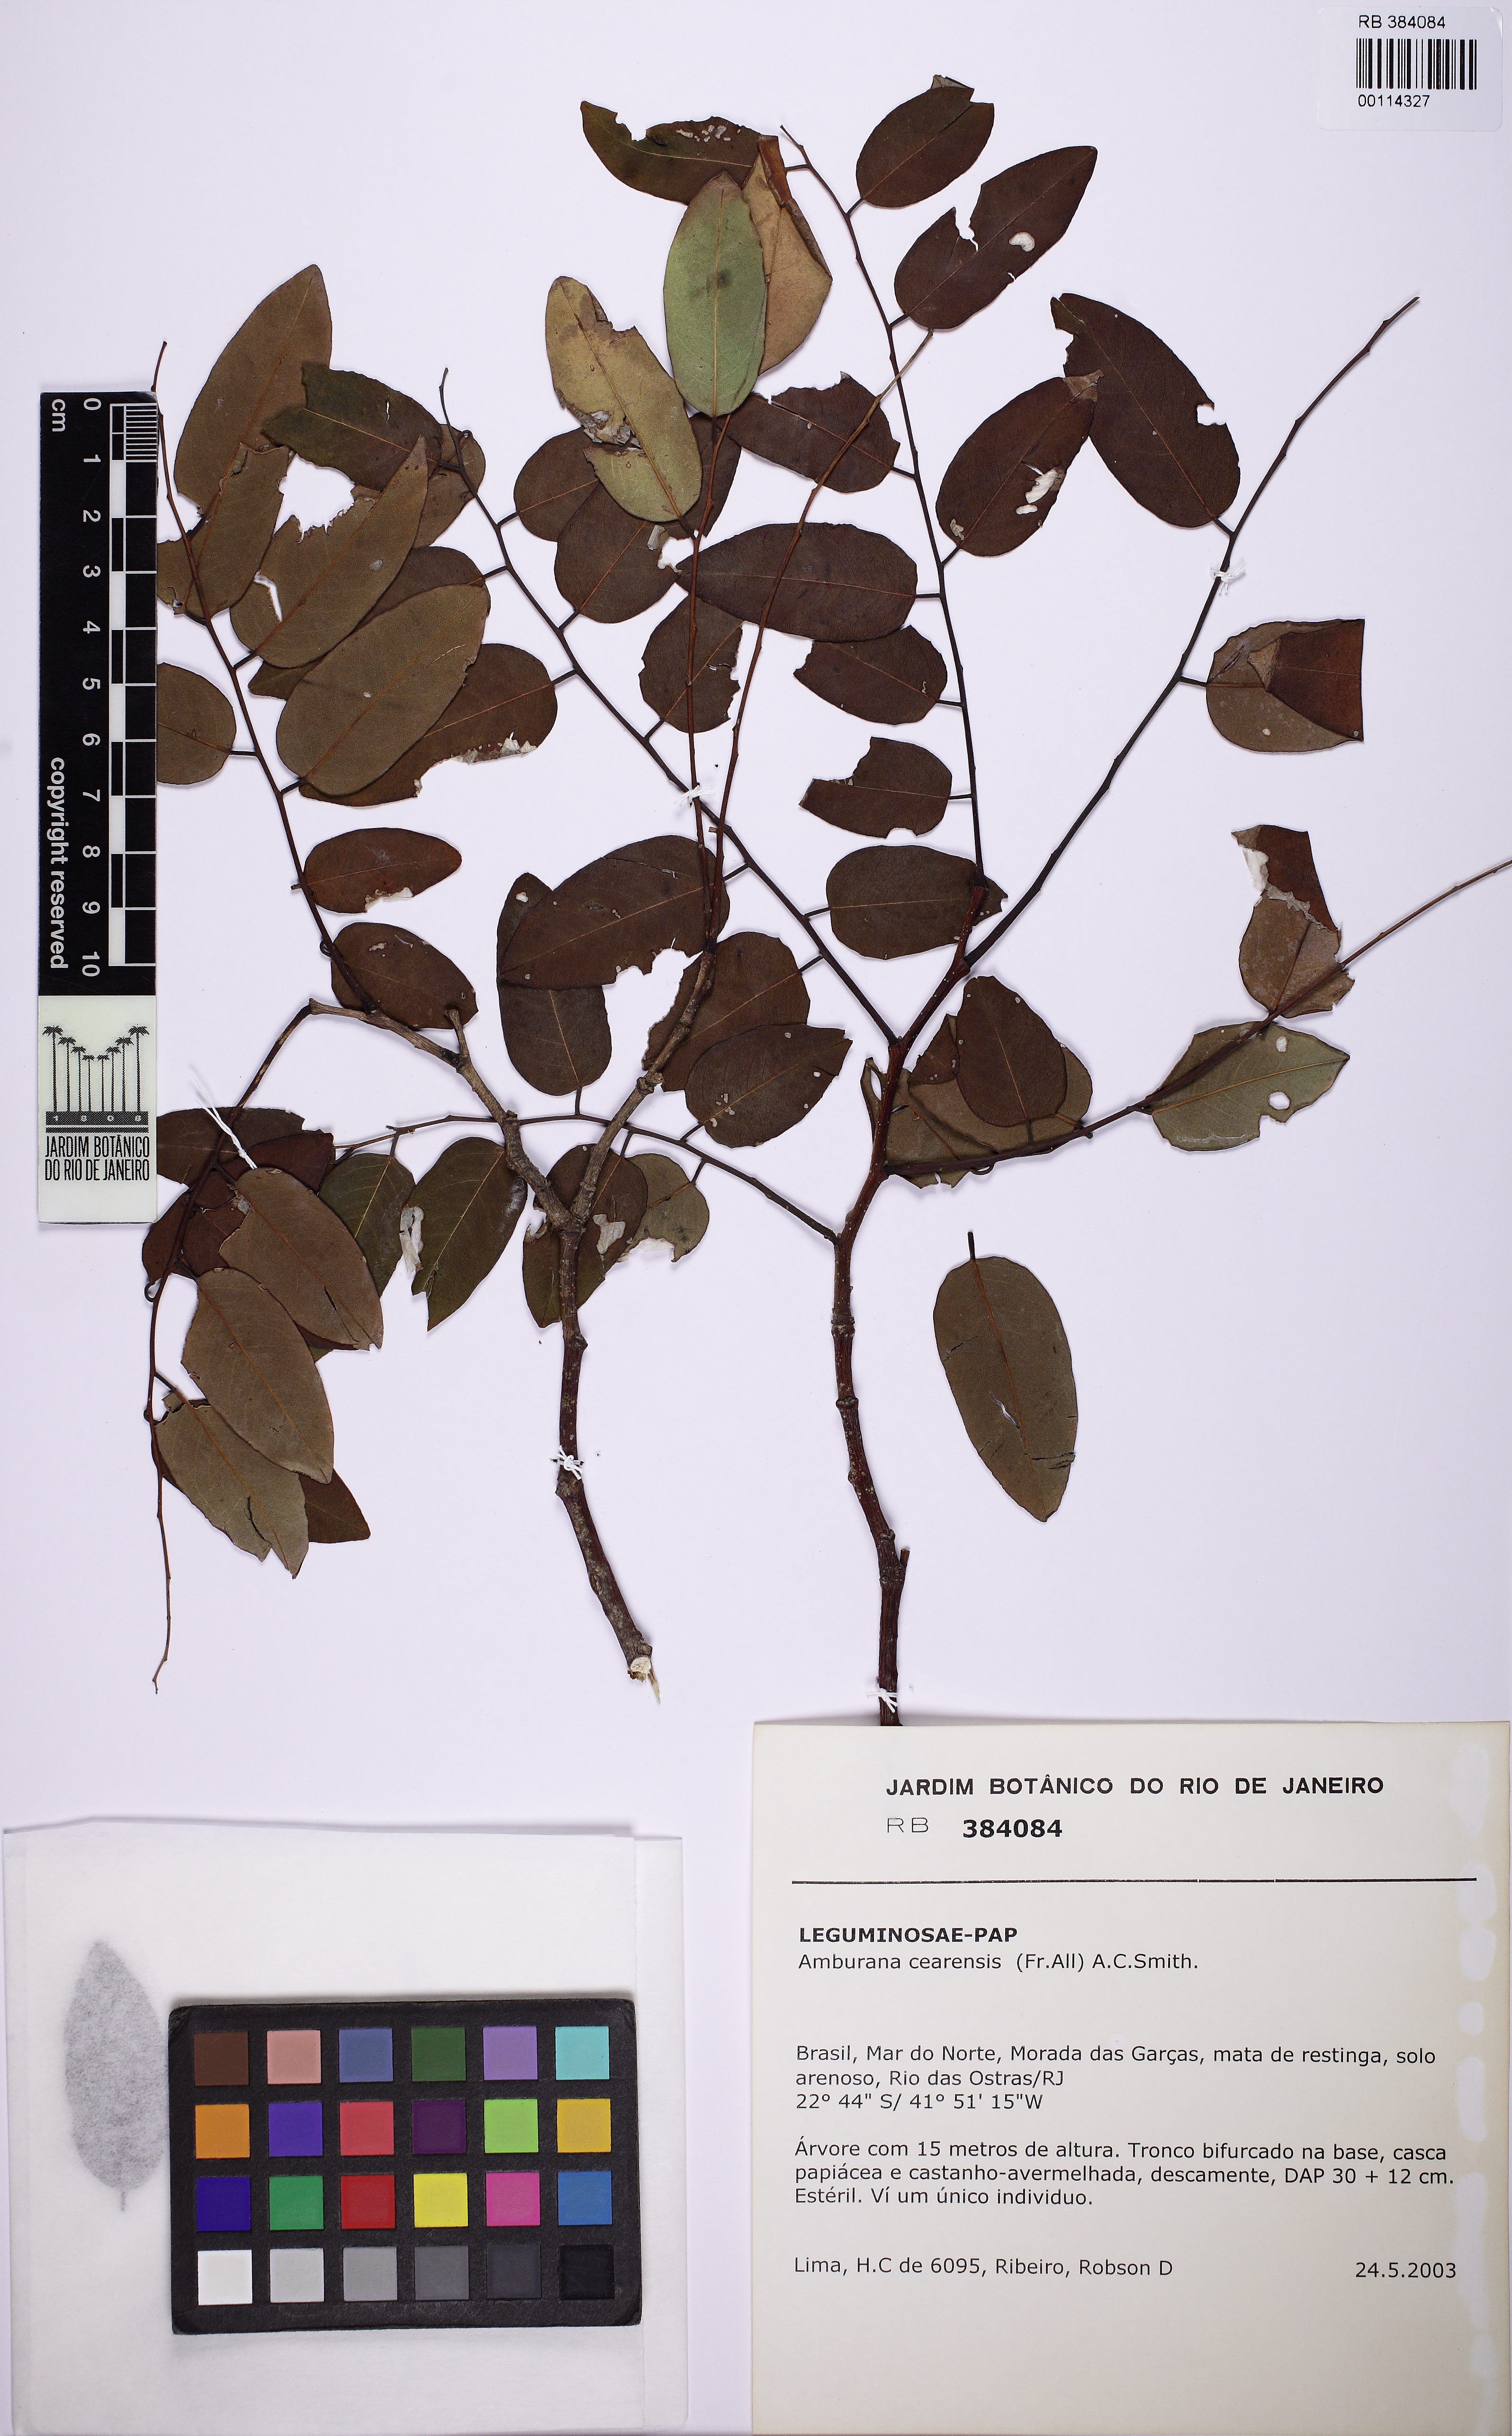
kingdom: Plantae
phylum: Tracheophyta
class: Magnoliopsida
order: Fabales
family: Fabaceae
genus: Amburana
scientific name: Amburana cearensis
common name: Cerejeira
